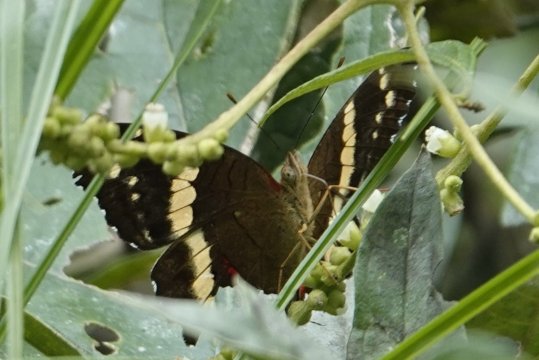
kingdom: Animalia
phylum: Arthropoda
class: Insecta
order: Lepidoptera
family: Nymphalidae
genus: Anartia
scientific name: Anartia fatima
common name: Banded Peacock
